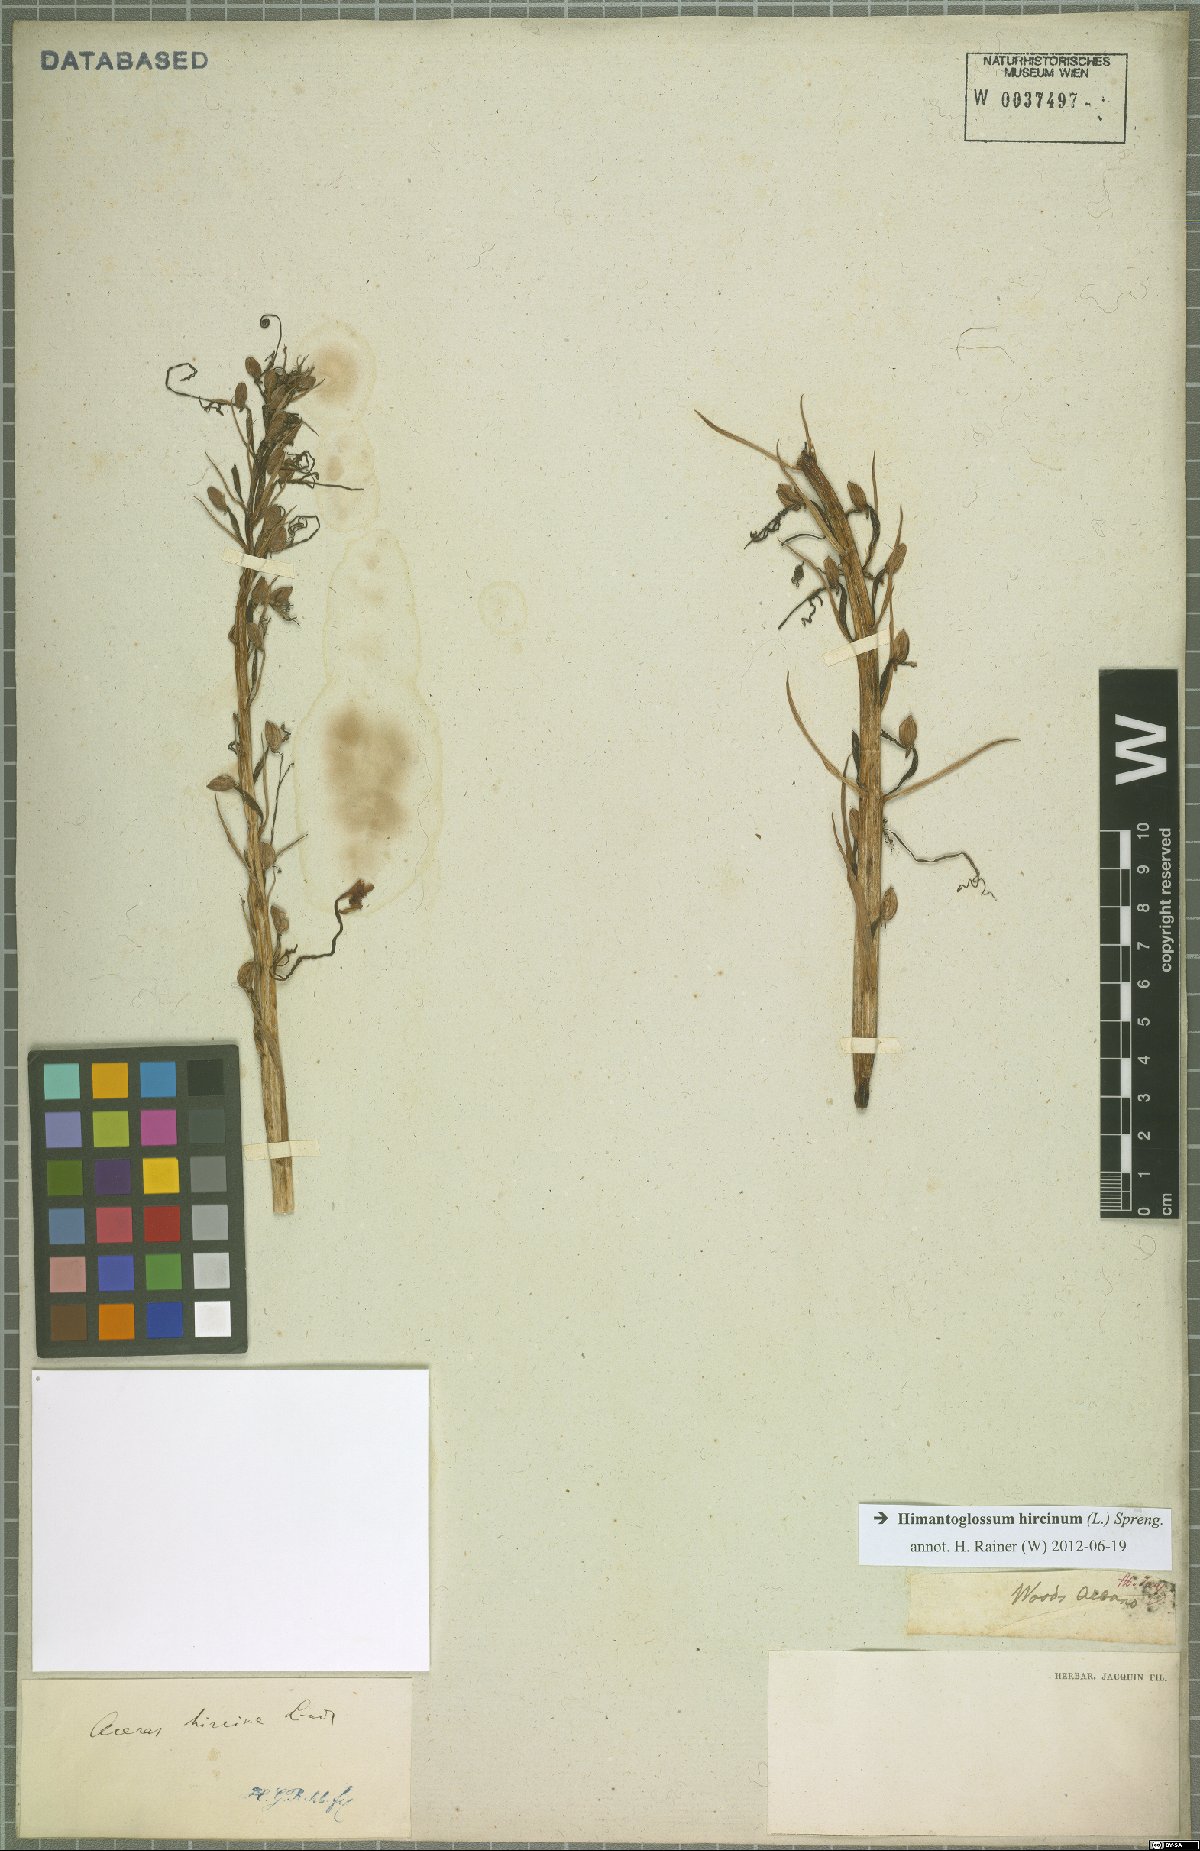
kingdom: Plantae
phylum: Tracheophyta
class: Liliopsida
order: Asparagales
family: Orchidaceae
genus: Himantoglossum
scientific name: Himantoglossum hircinum
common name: Lizard orchid
